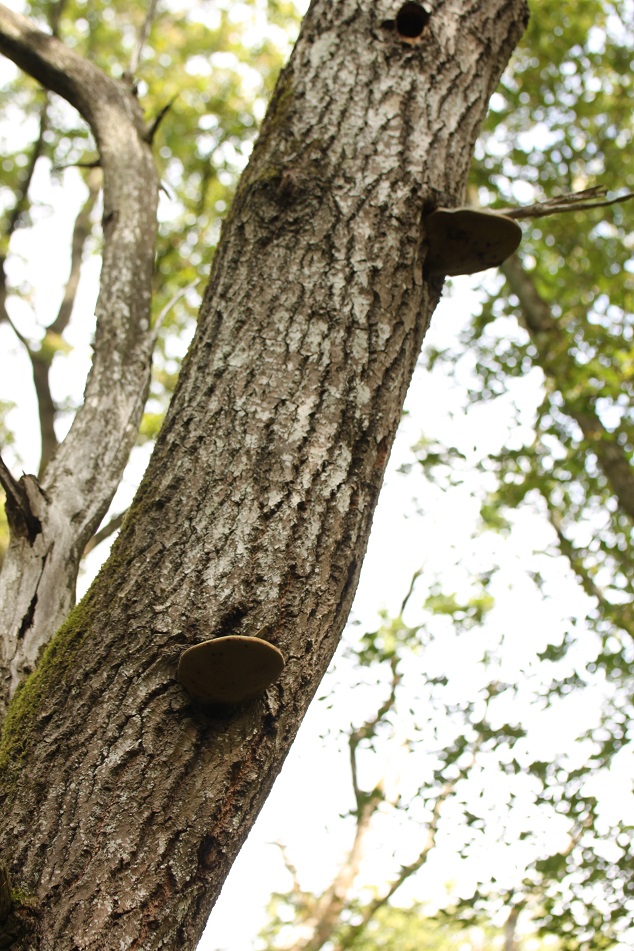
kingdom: Fungi
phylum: Basidiomycota
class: Agaricomycetes
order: Hymenochaetales
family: Hymenochaetaceae
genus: Phellinus
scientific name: Phellinus populicola
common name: poppel-ildporesvamp
